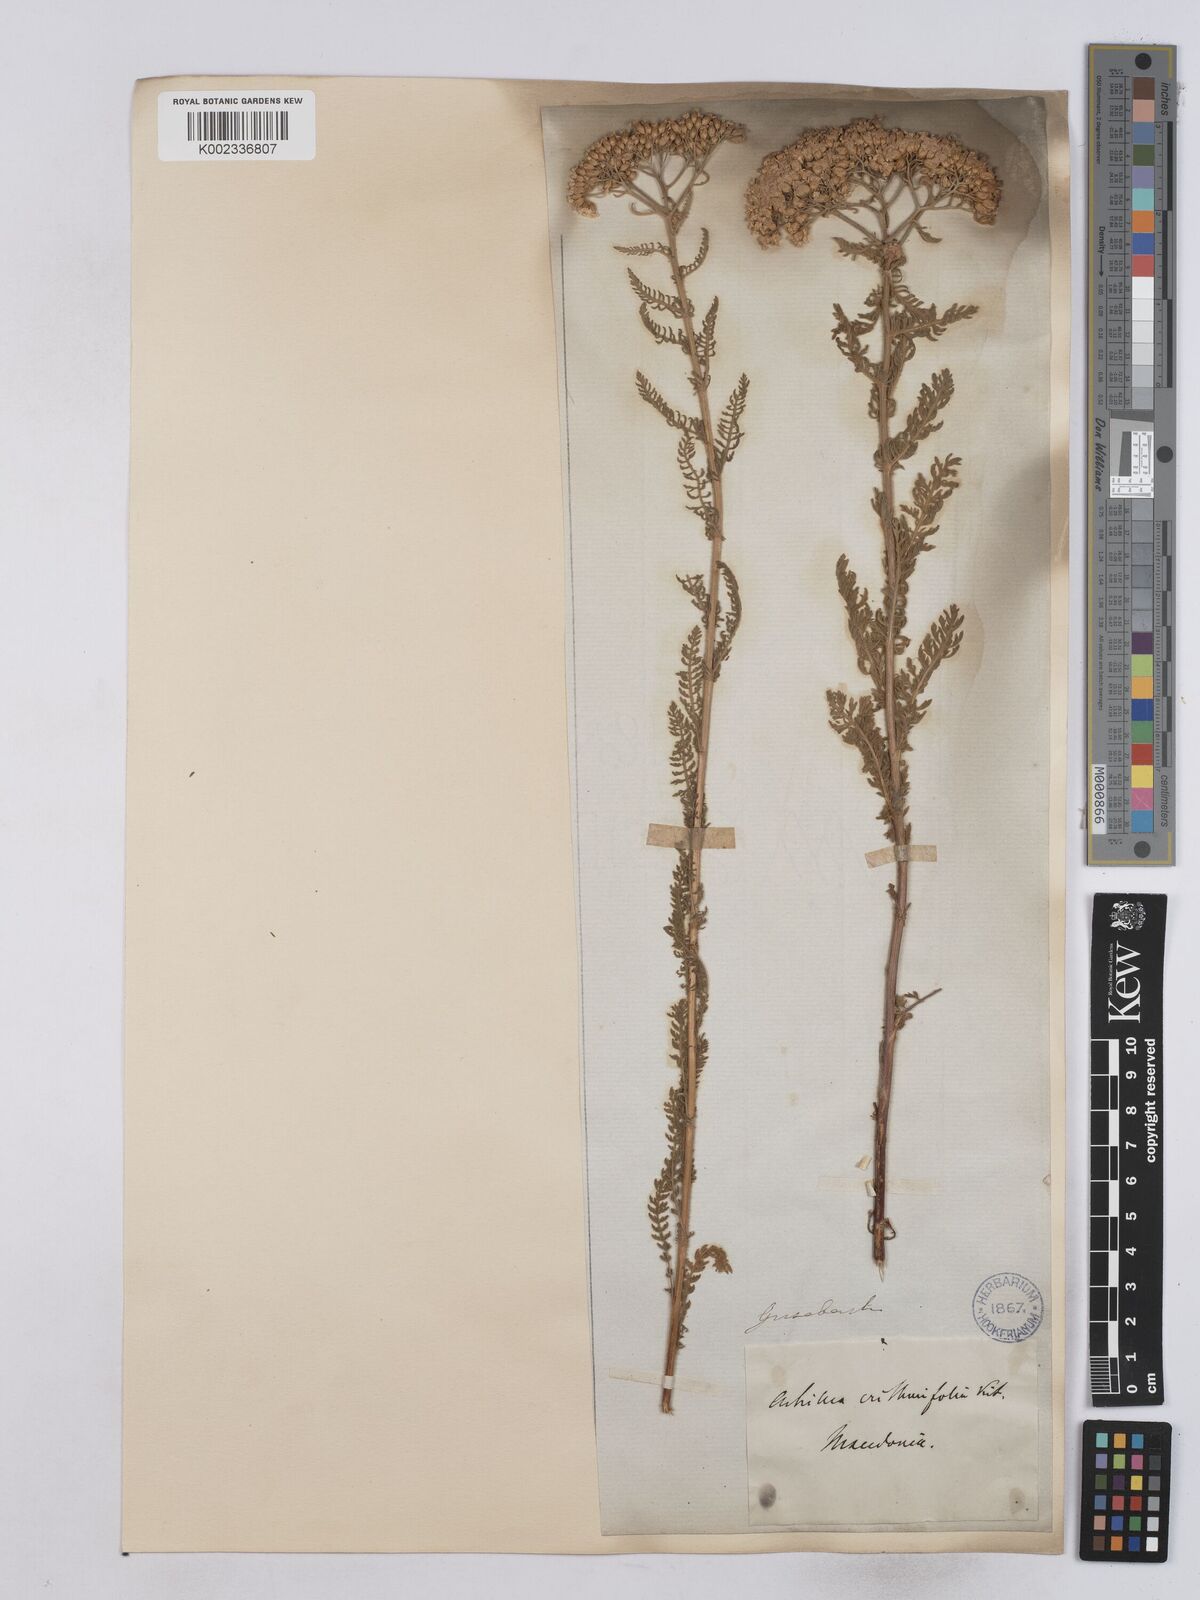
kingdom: Plantae
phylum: Tracheophyta
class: Magnoliopsida
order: Asterales
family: Asteraceae
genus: Achillea
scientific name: Achillea crithmifolia
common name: Yarrow
